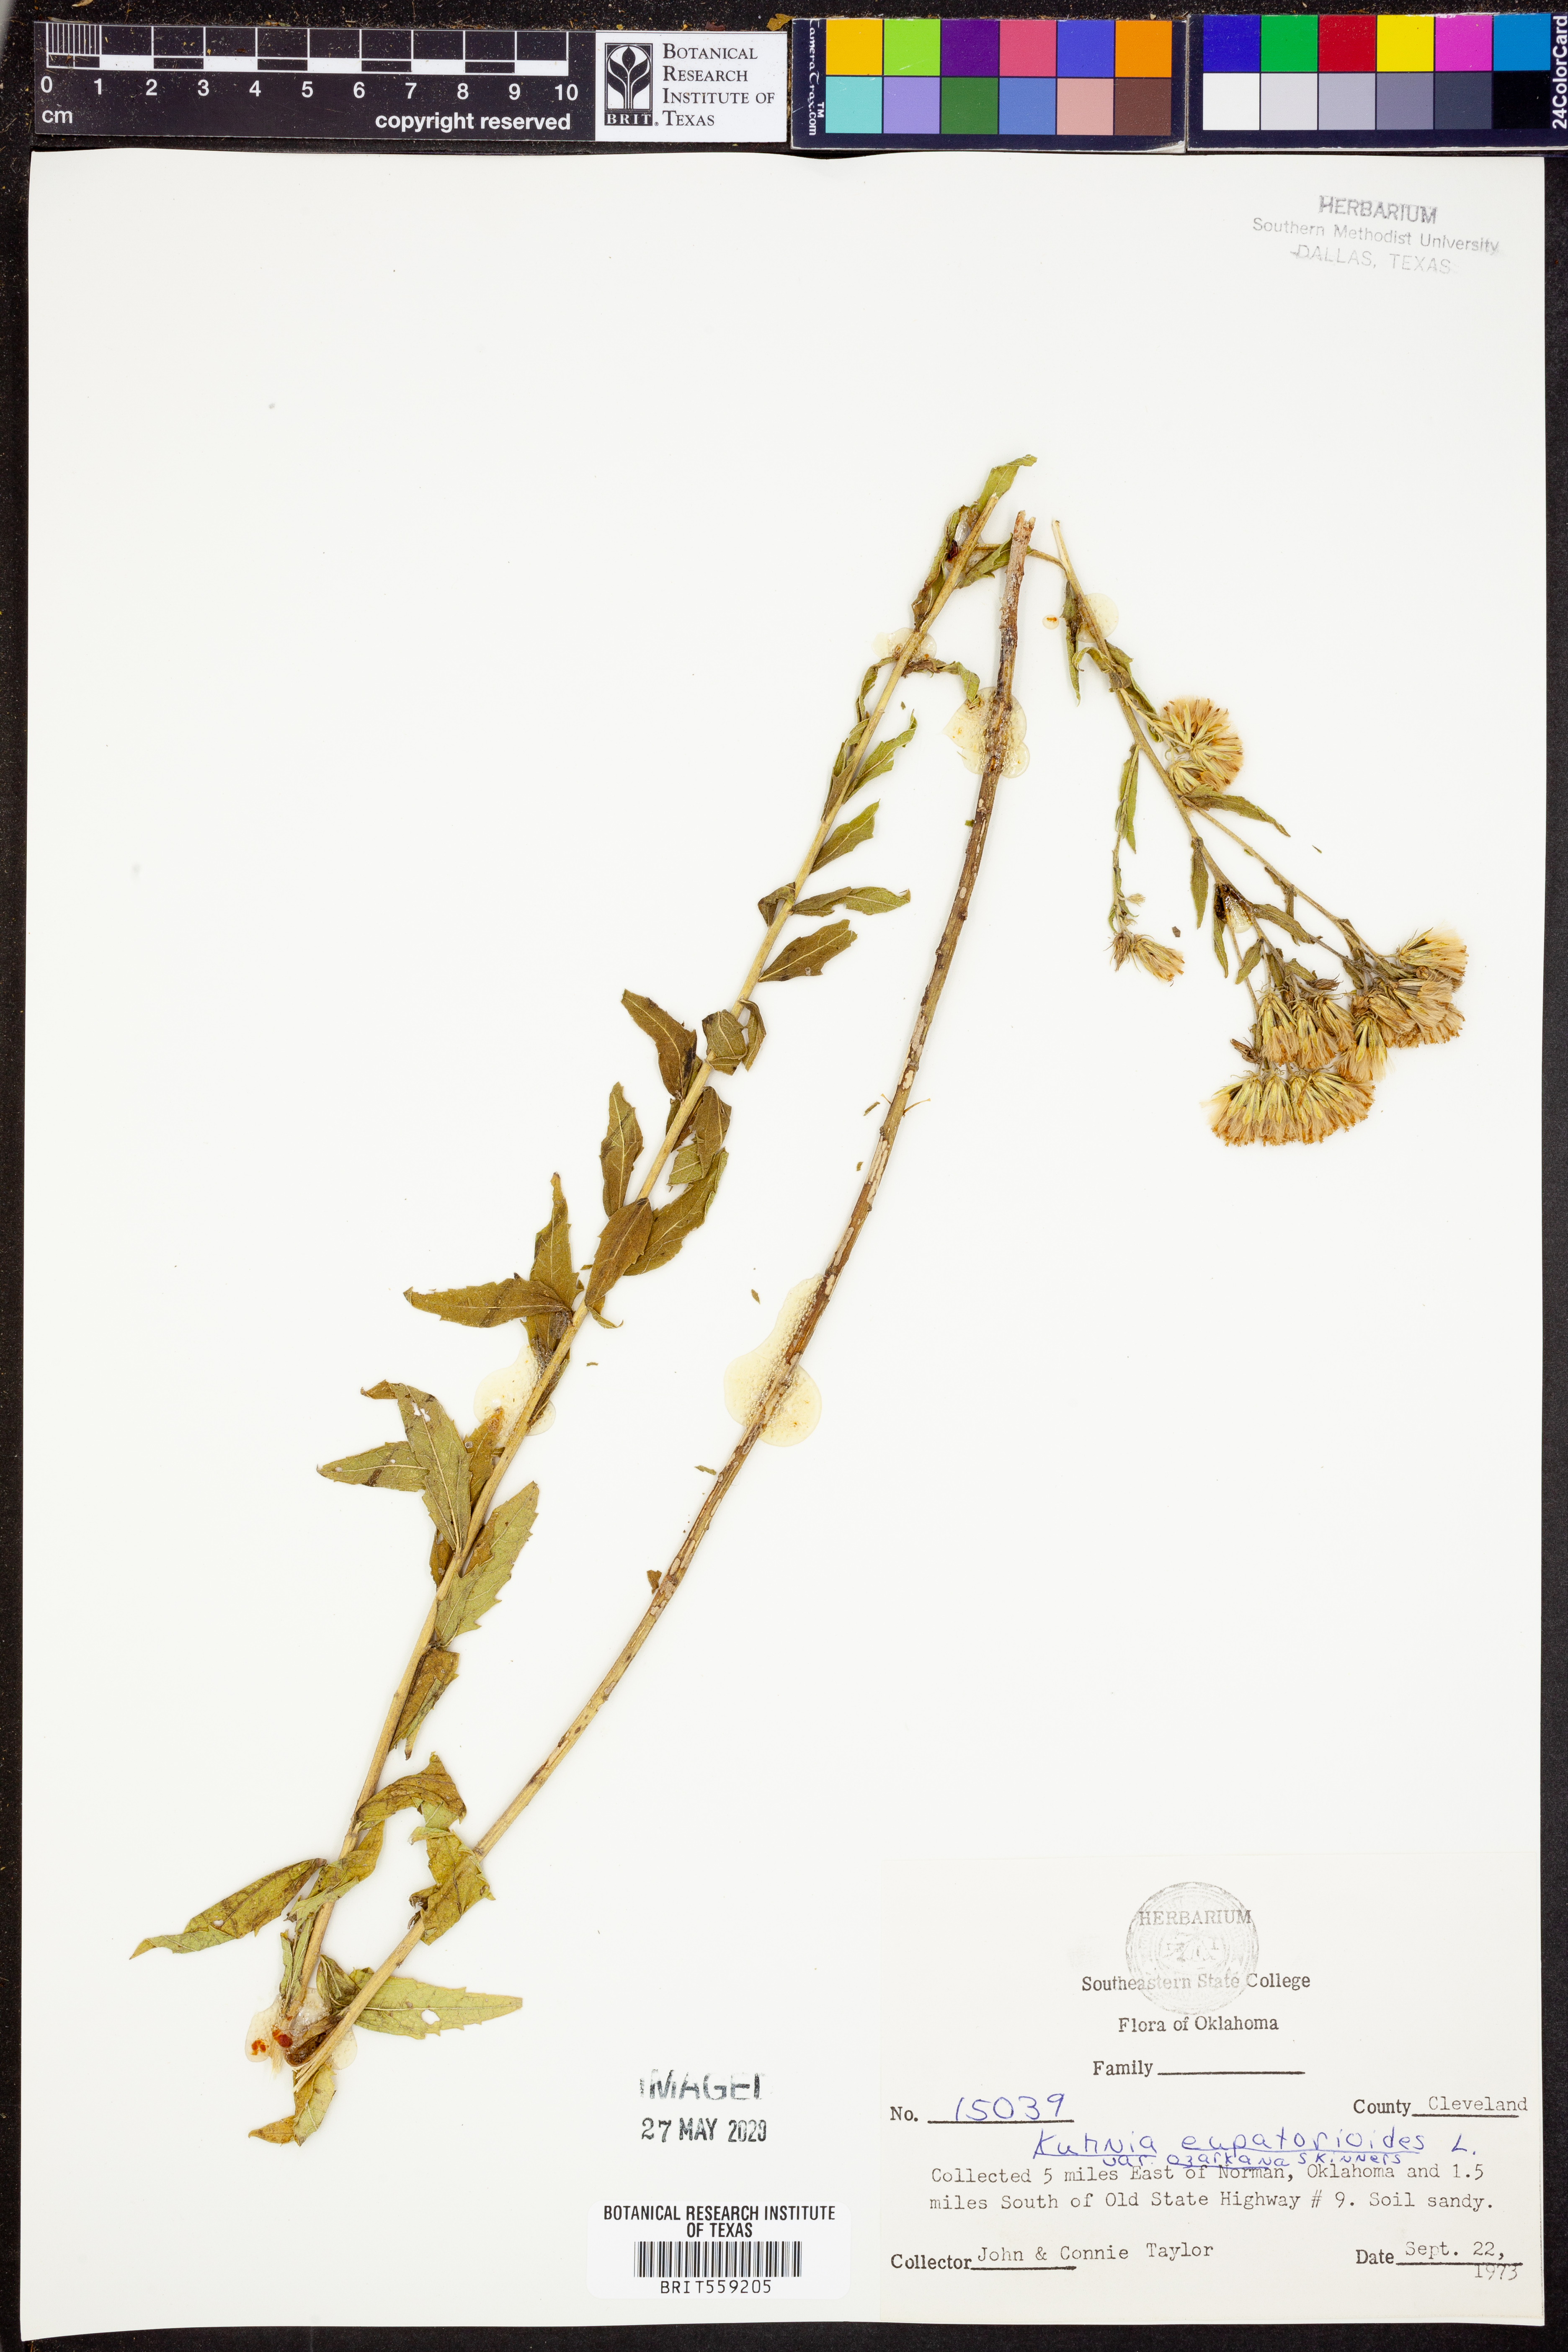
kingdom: Plantae
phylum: Tracheophyta
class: Magnoliopsida
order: Asterales
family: Asteraceae
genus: Brickellia
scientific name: Brickellia ozarkana
